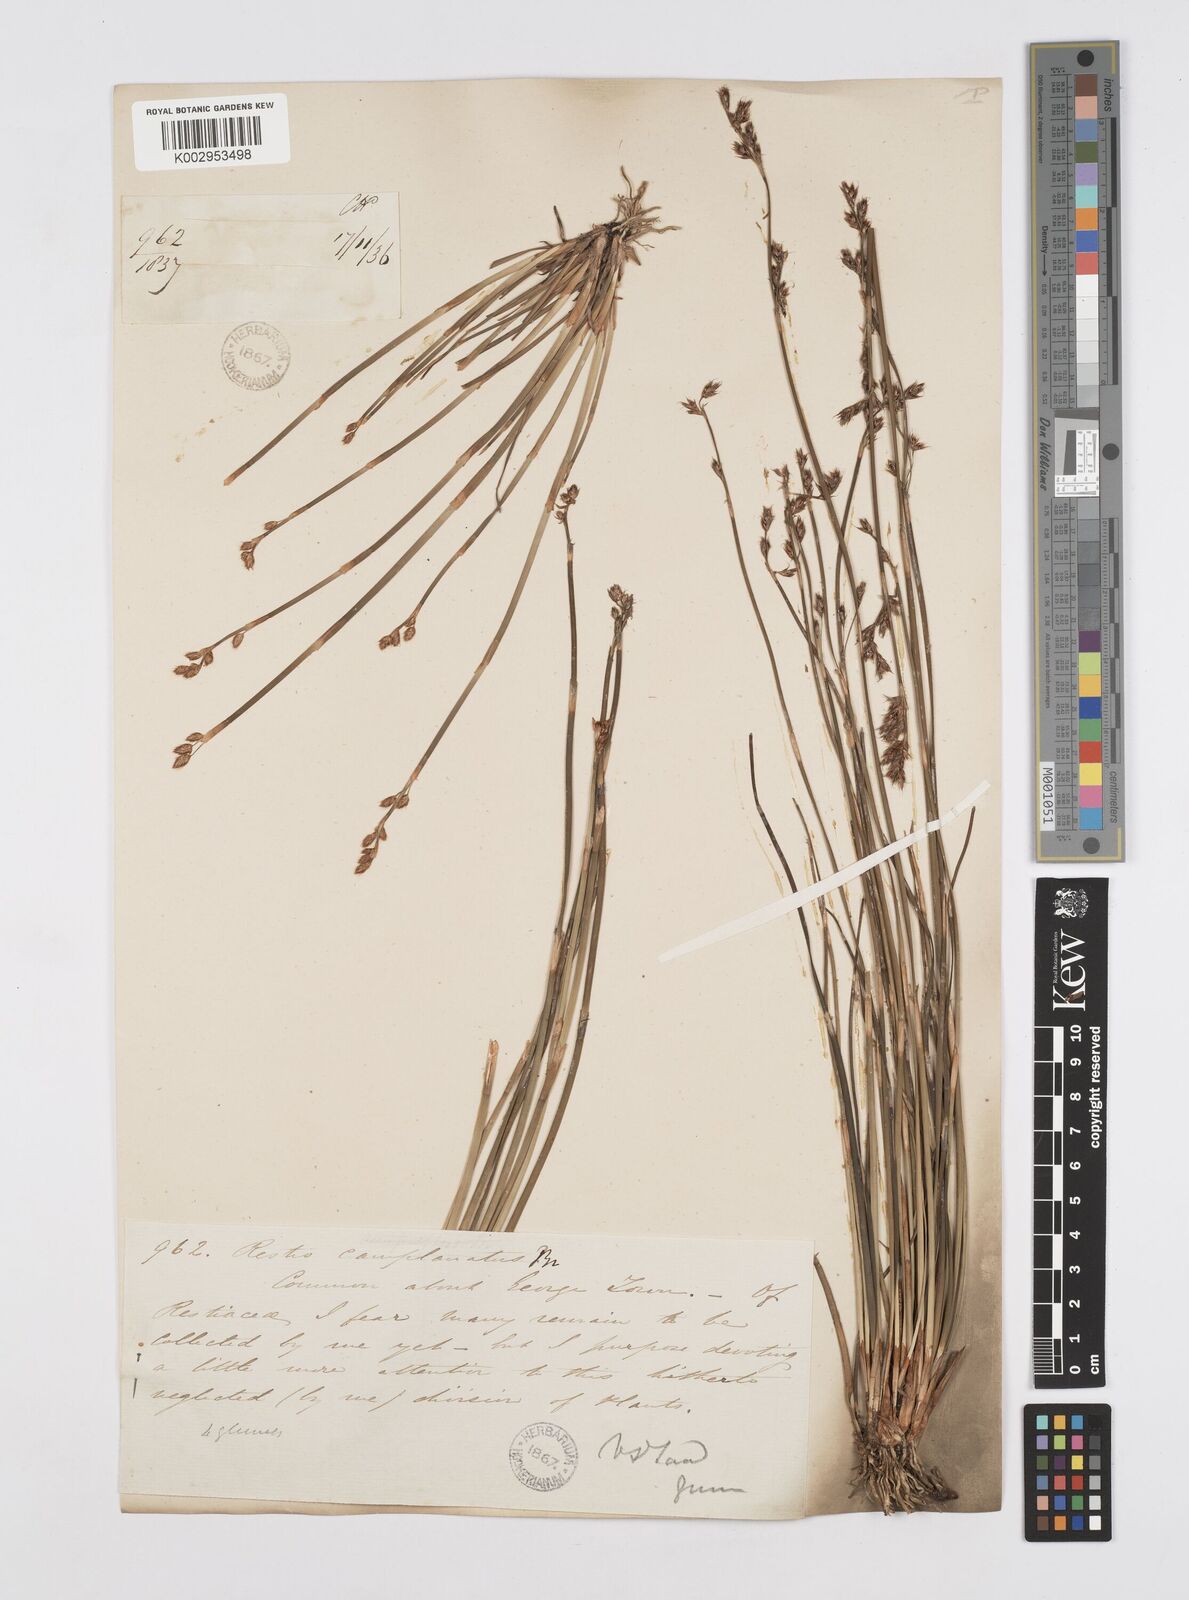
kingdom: Plantae
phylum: Tracheophyta
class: Liliopsida
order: Poales
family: Restionaceae
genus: Eurychorda
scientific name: Eurychorda complanata
